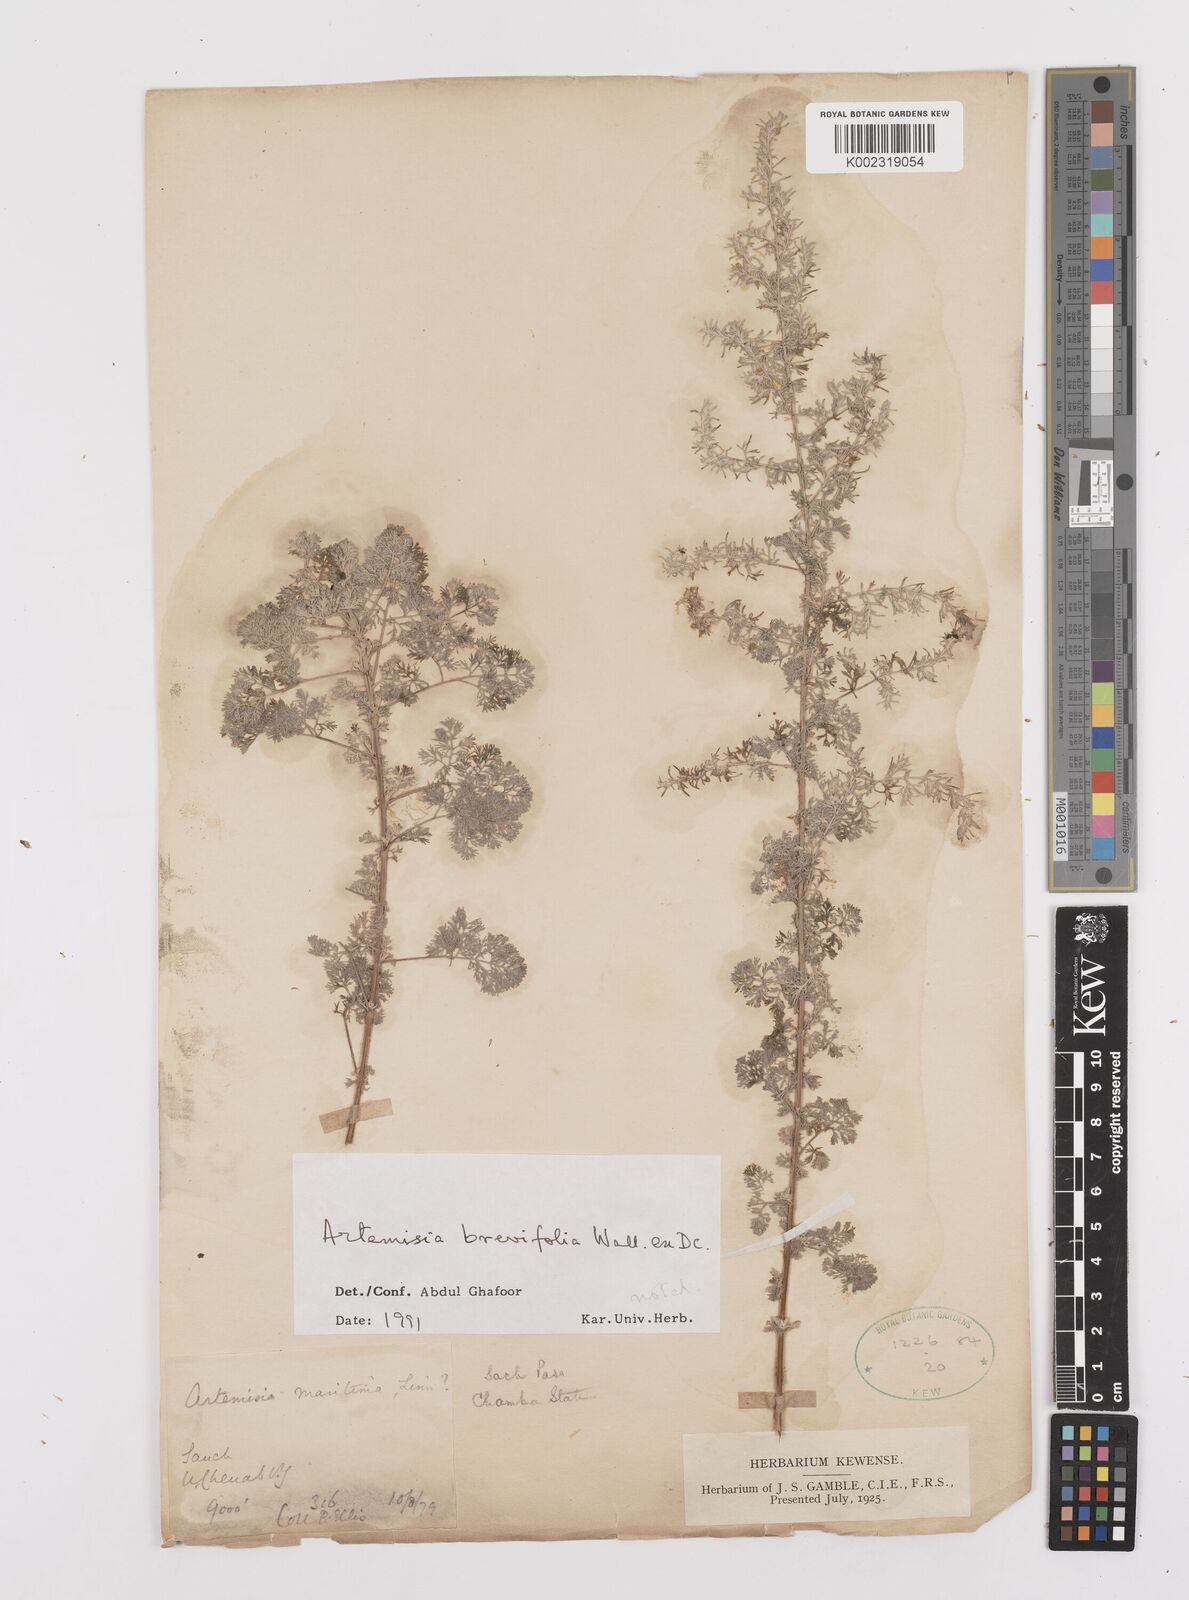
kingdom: Plantae
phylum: Tracheophyta
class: Magnoliopsida
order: Asterales
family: Asteraceae
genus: Artemisia
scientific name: Artemisia brevifolia
